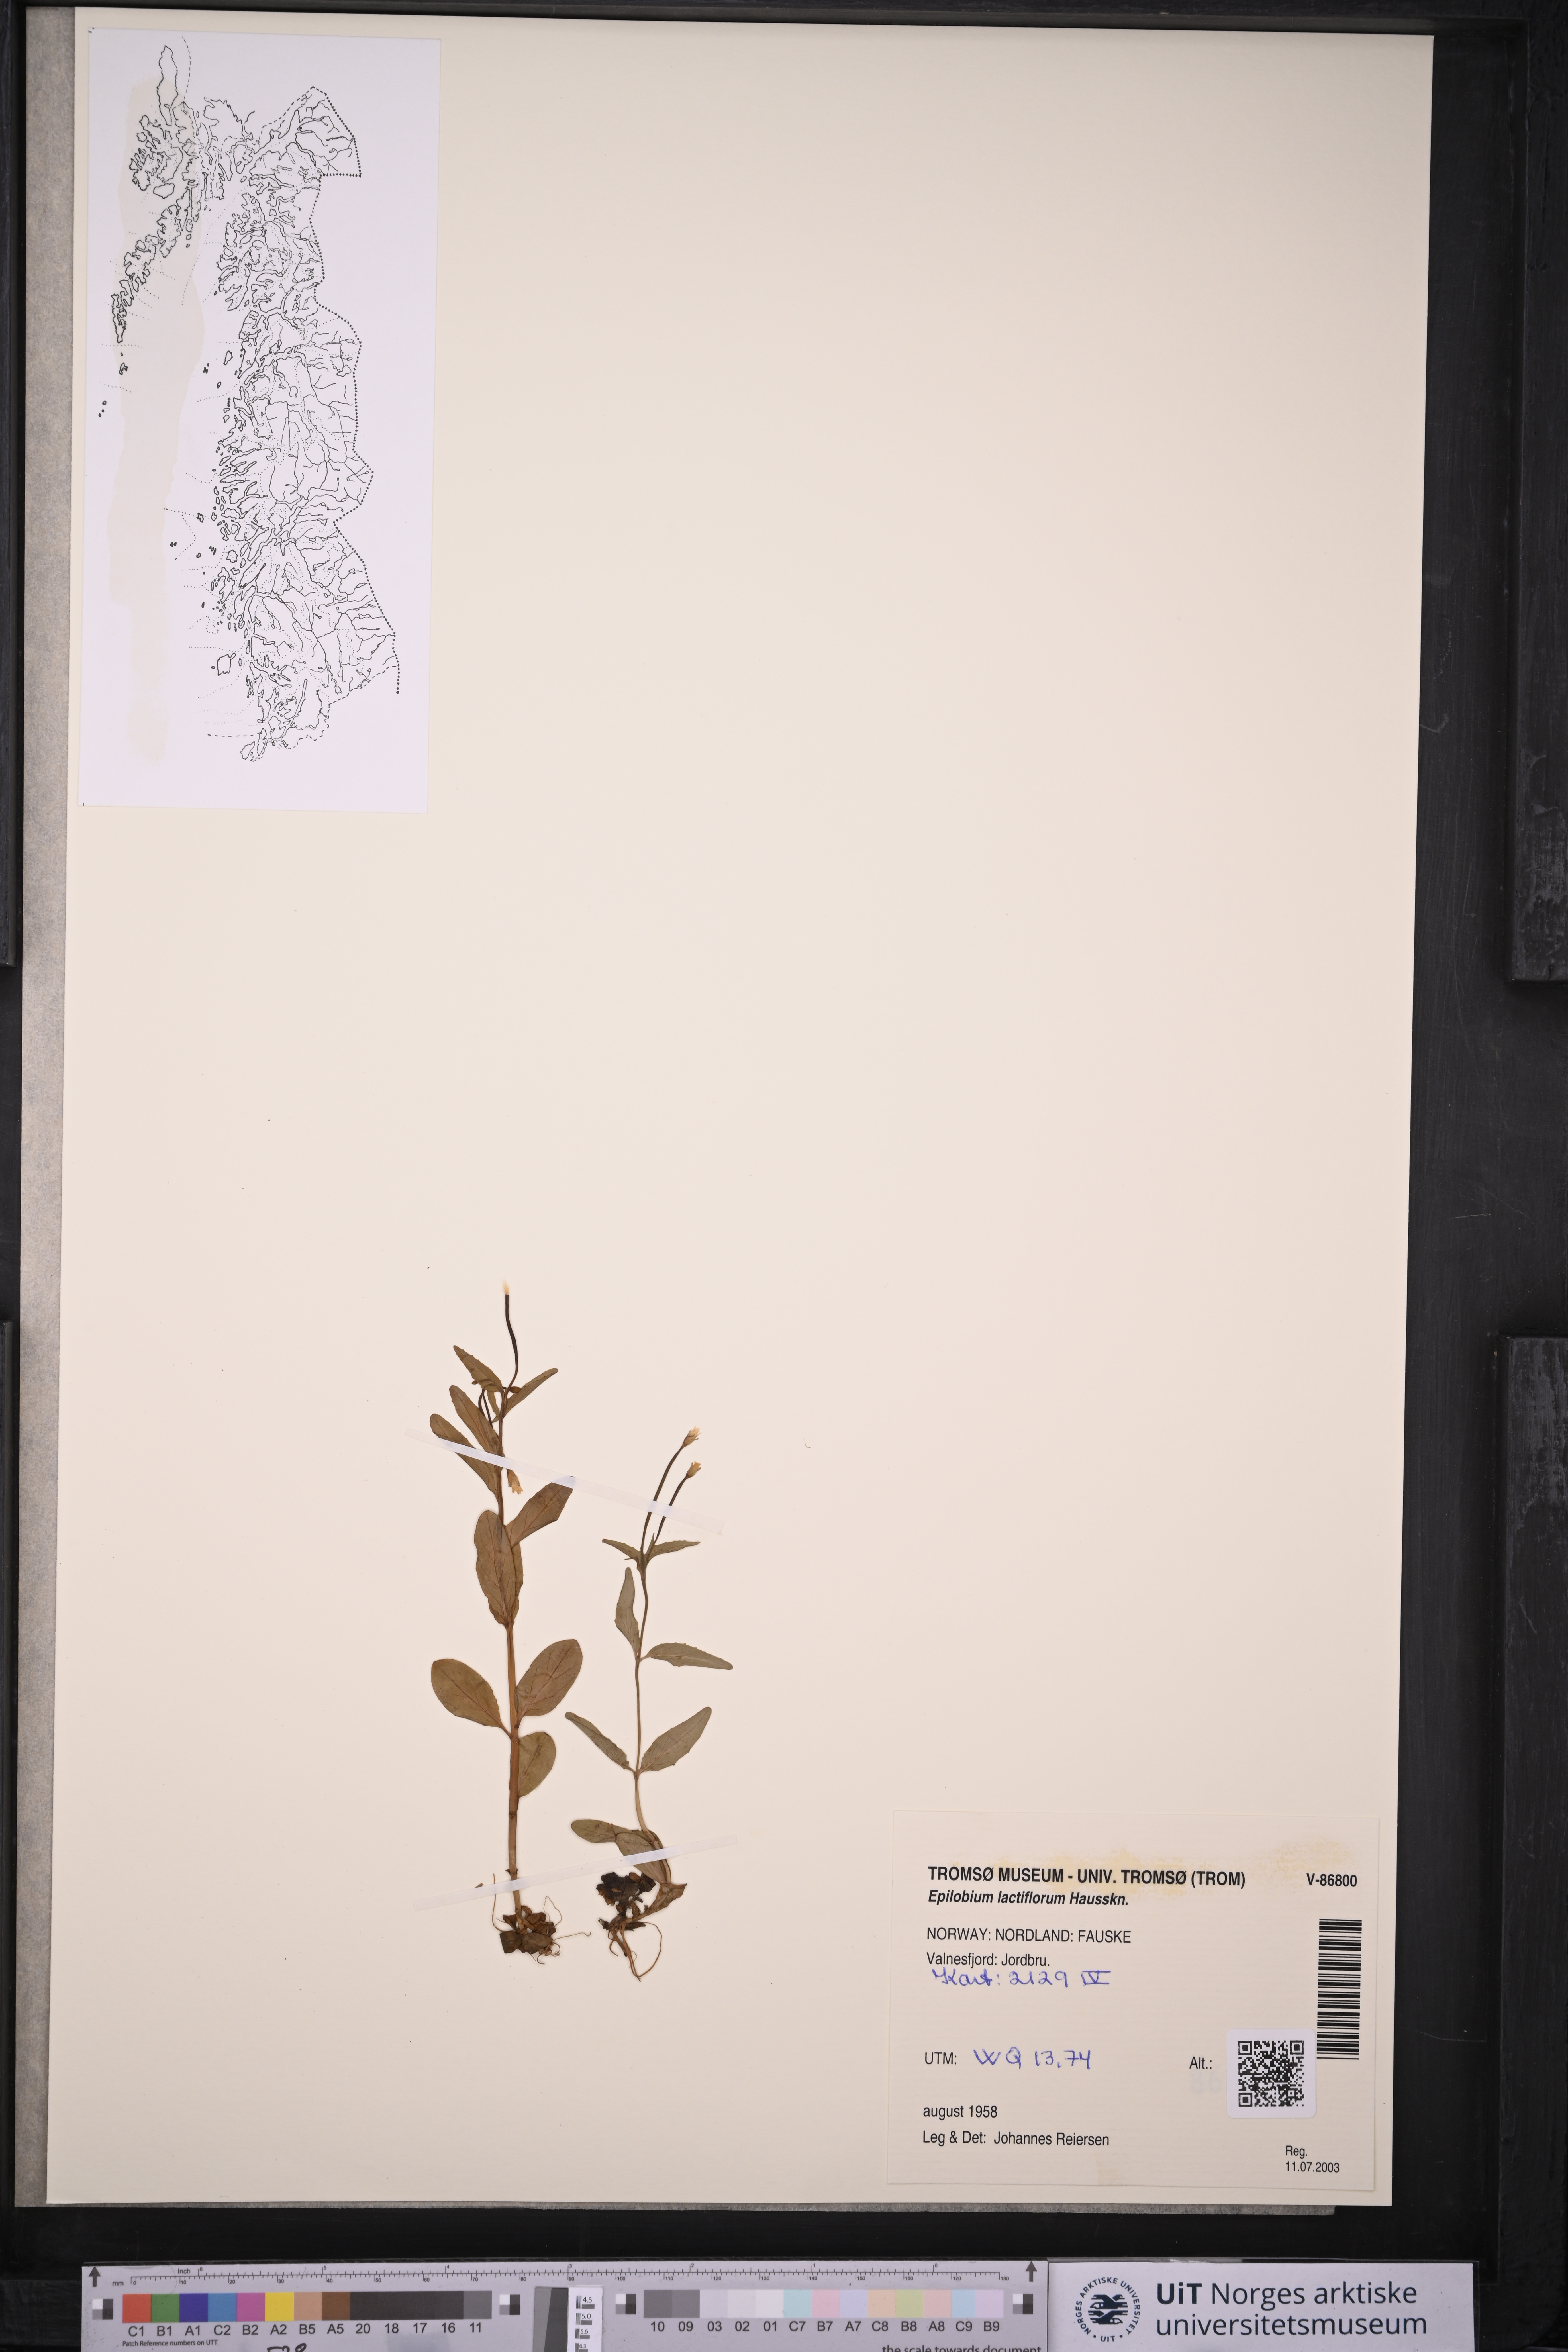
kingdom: Plantae
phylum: Tracheophyta
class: Magnoliopsida
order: Myrtales
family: Onagraceae
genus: Epilobium
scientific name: Epilobium lactiflorum
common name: Milkflower willowherb
